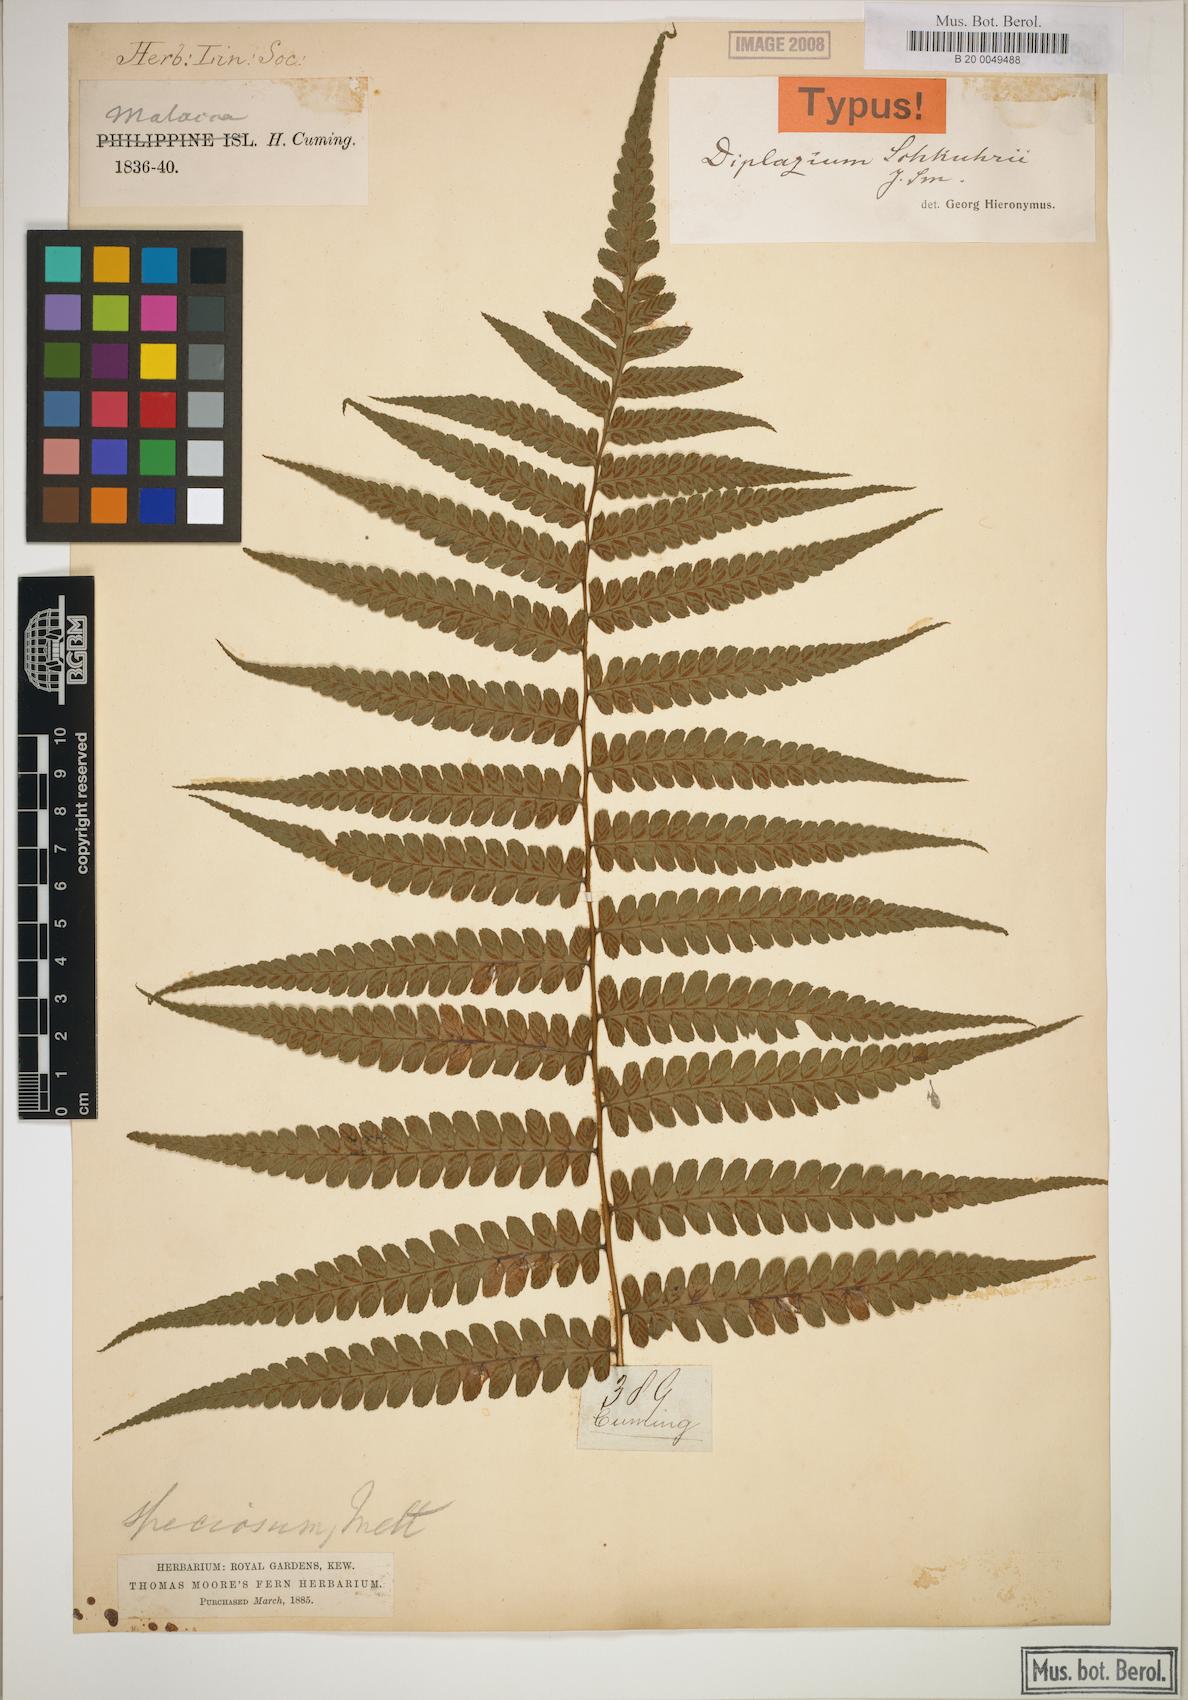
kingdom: Plantae
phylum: Tracheophyta
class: Polypodiopsida
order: Polypodiales
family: Athyriaceae
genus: Diplazium
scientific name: Diplazium schkuhrii
